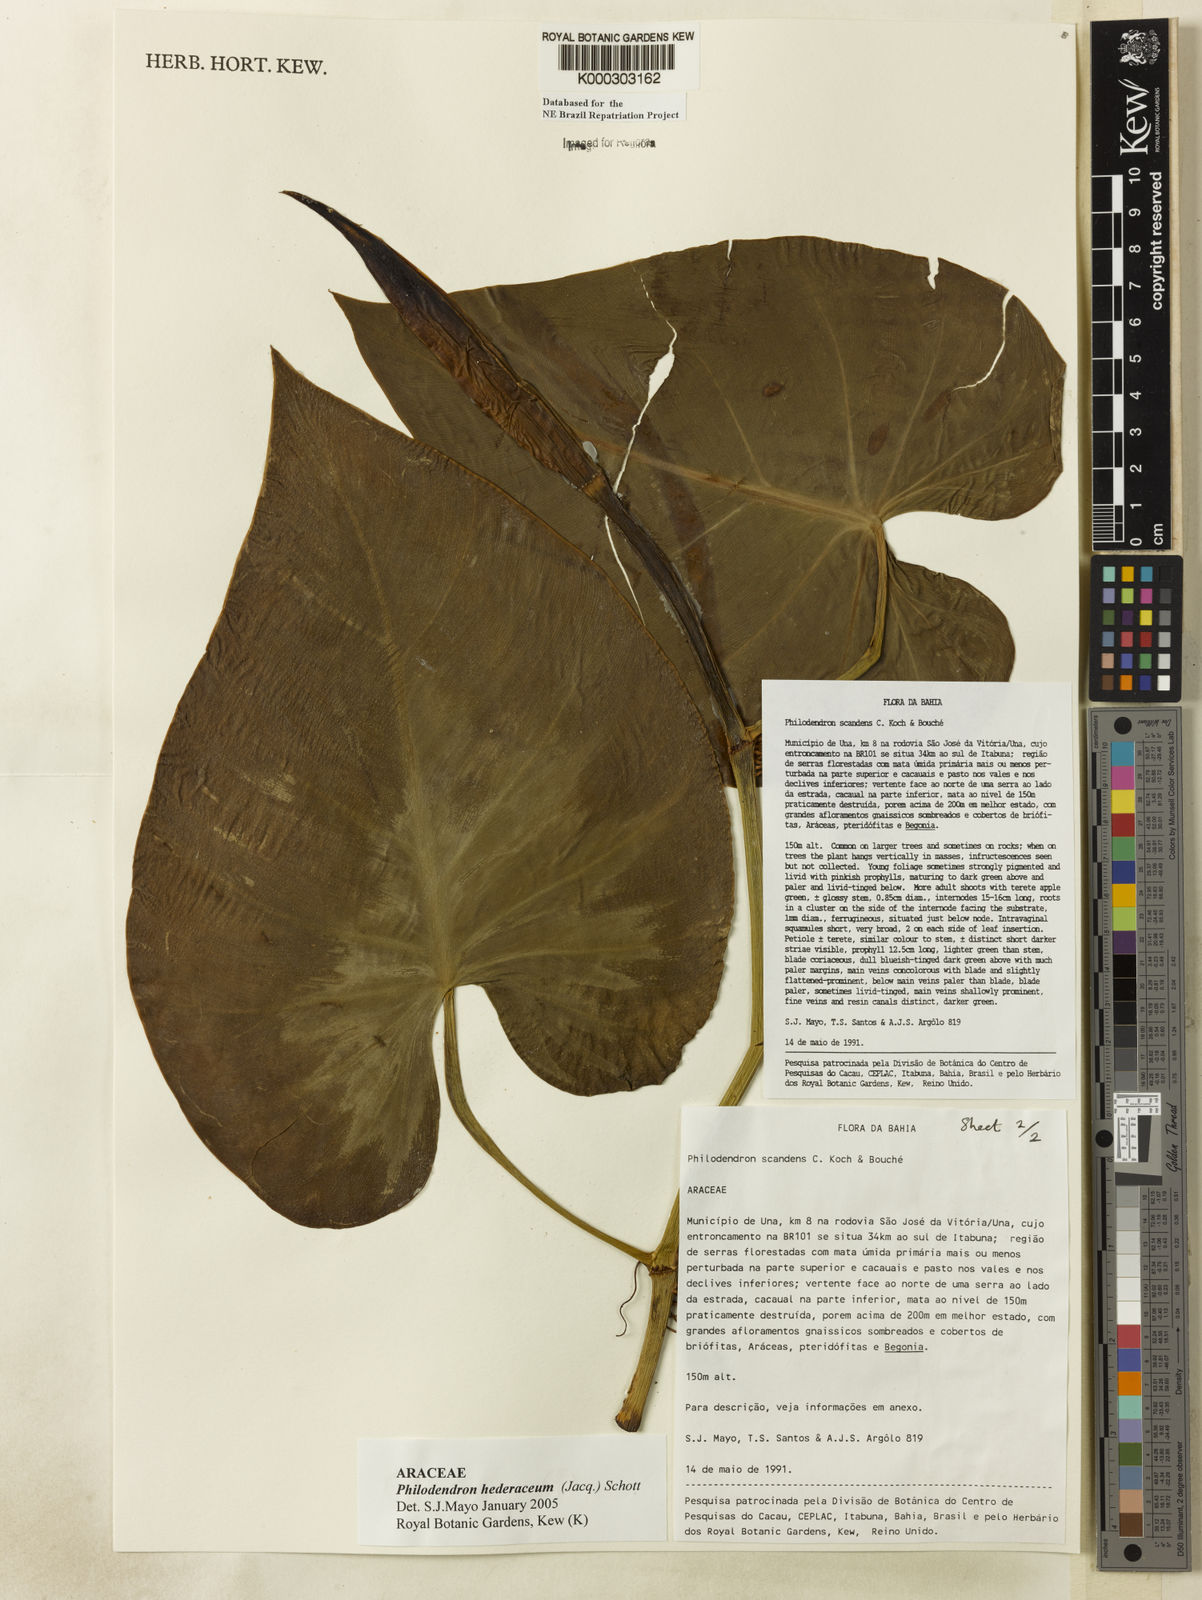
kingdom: Plantae
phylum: Tracheophyta
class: Liliopsida
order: Alismatales
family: Araceae
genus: Philodendron
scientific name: Philodendron hederaceum
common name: Vilevine
